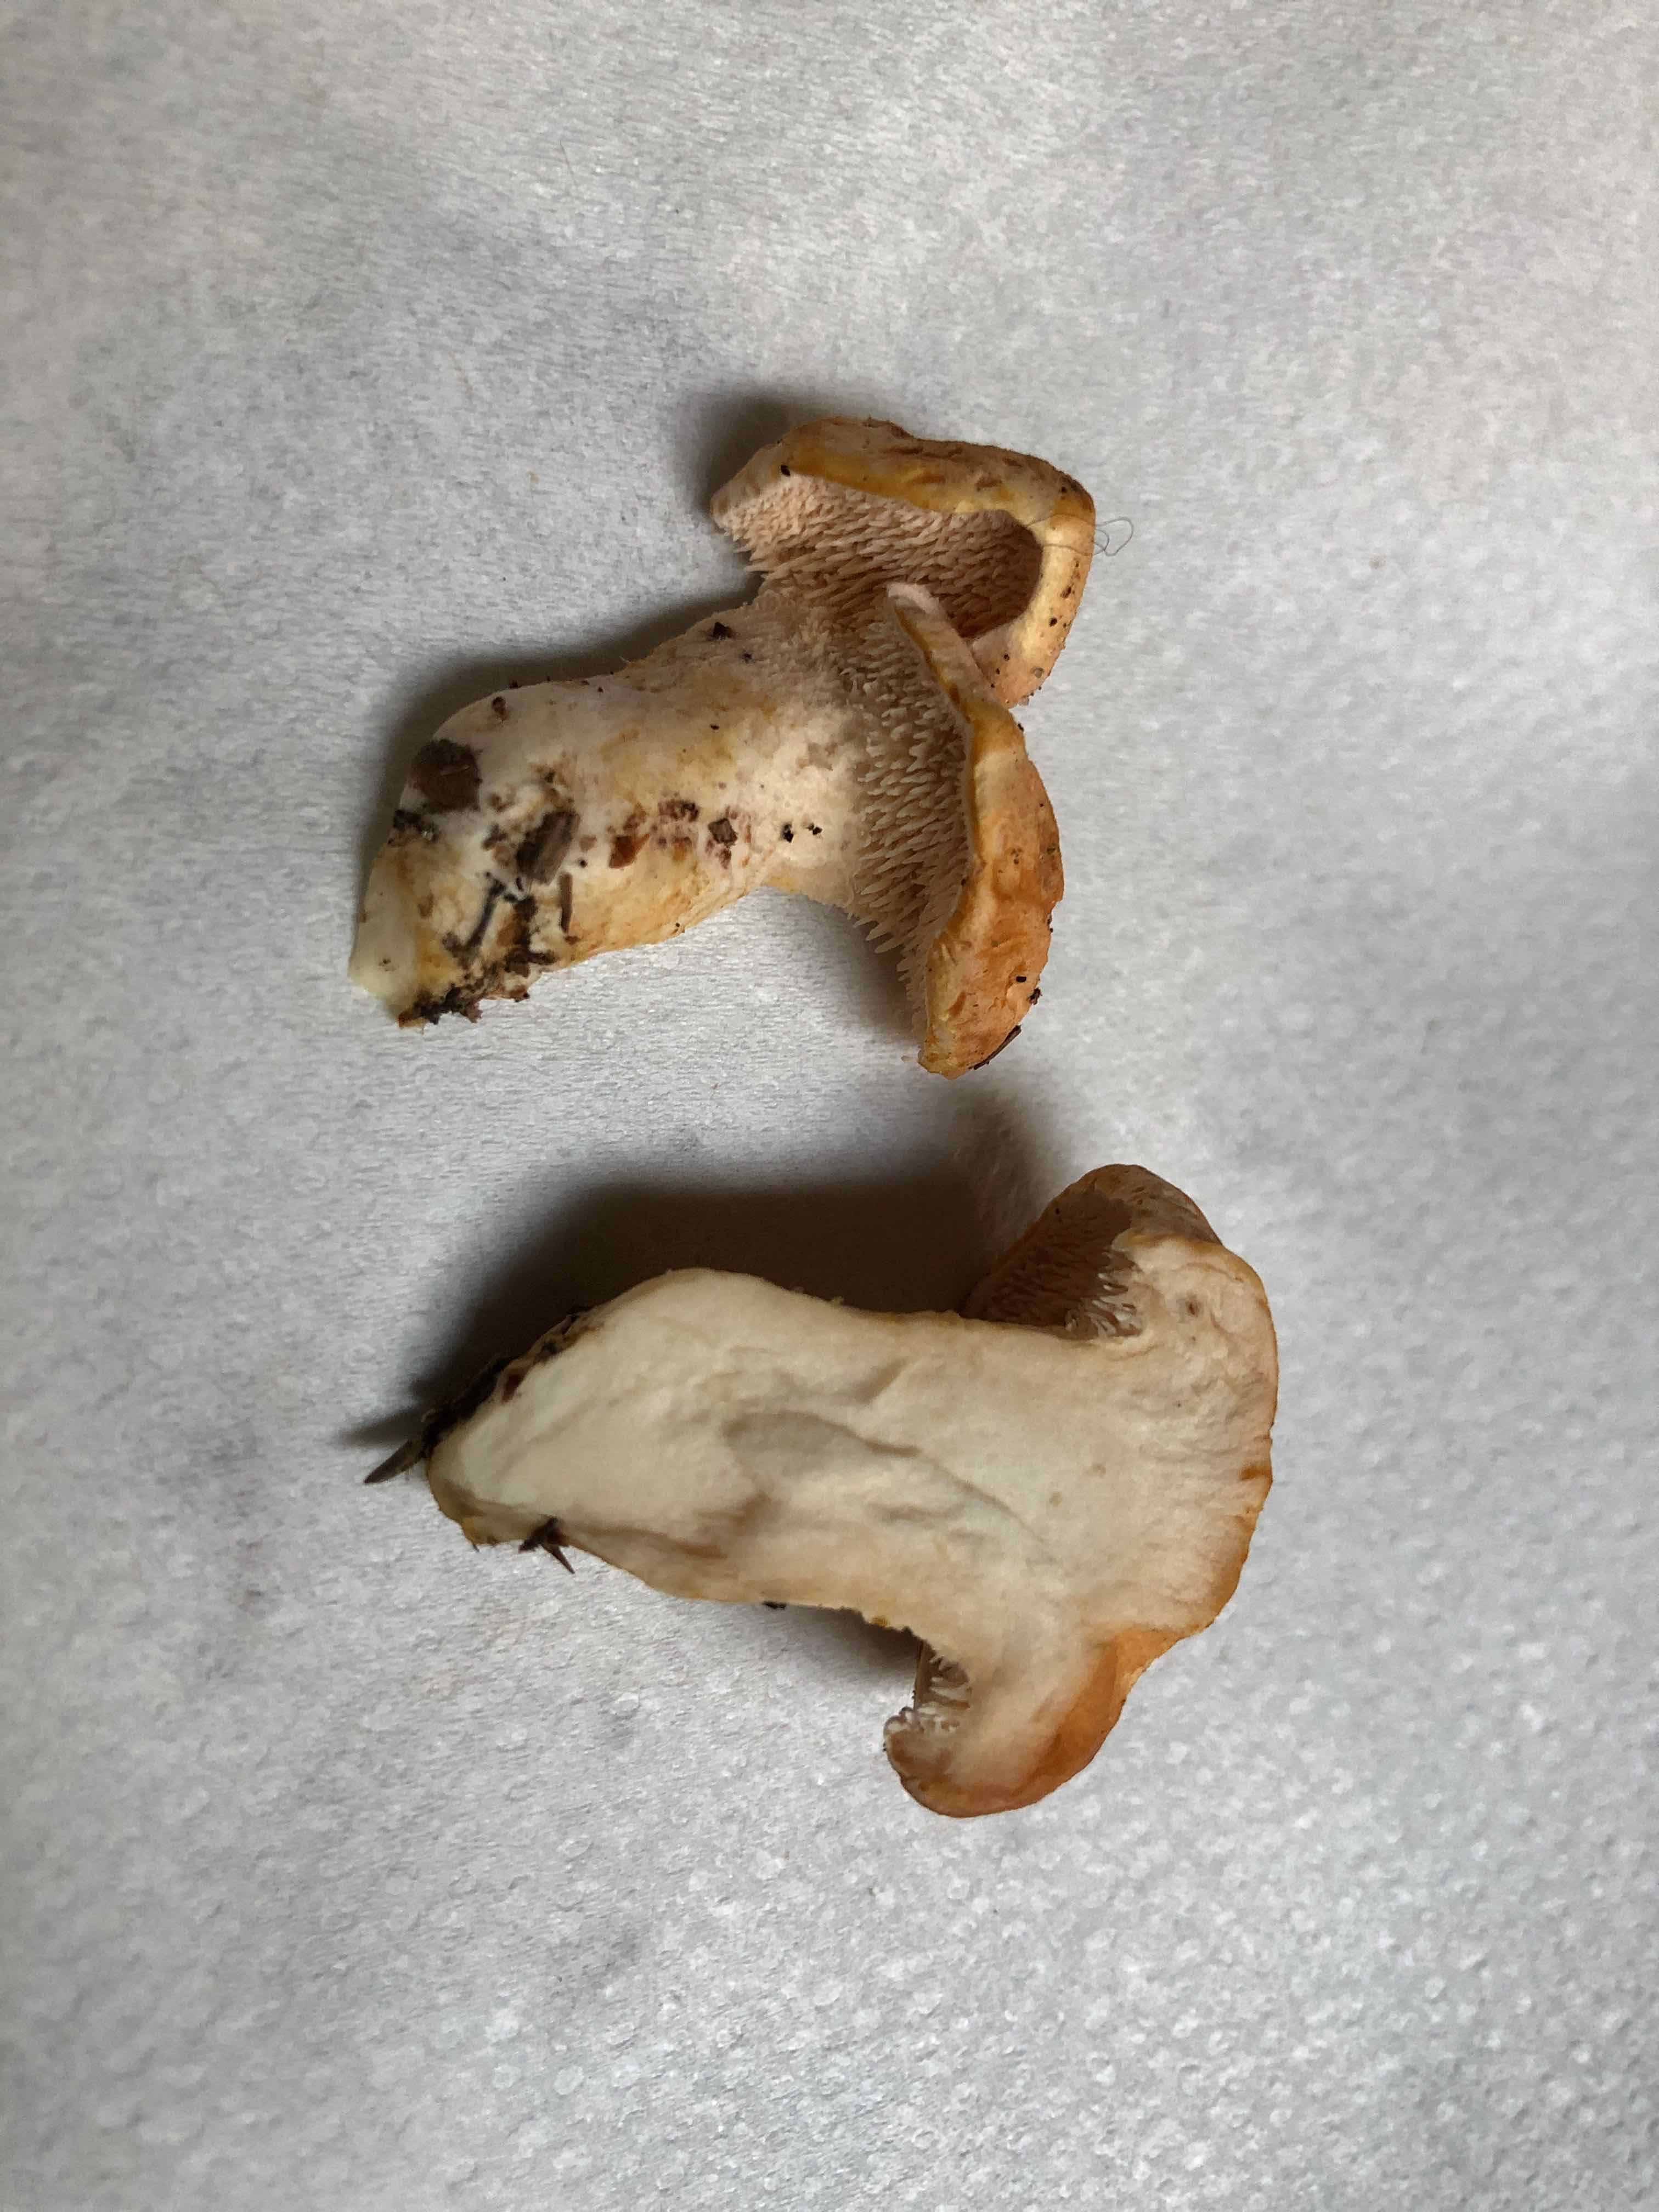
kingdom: Fungi
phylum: Basidiomycota
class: Agaricomycetes
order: Cantharellales
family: Hydnaceae
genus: Hydnum
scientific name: Hydnum
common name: pigsvamp
